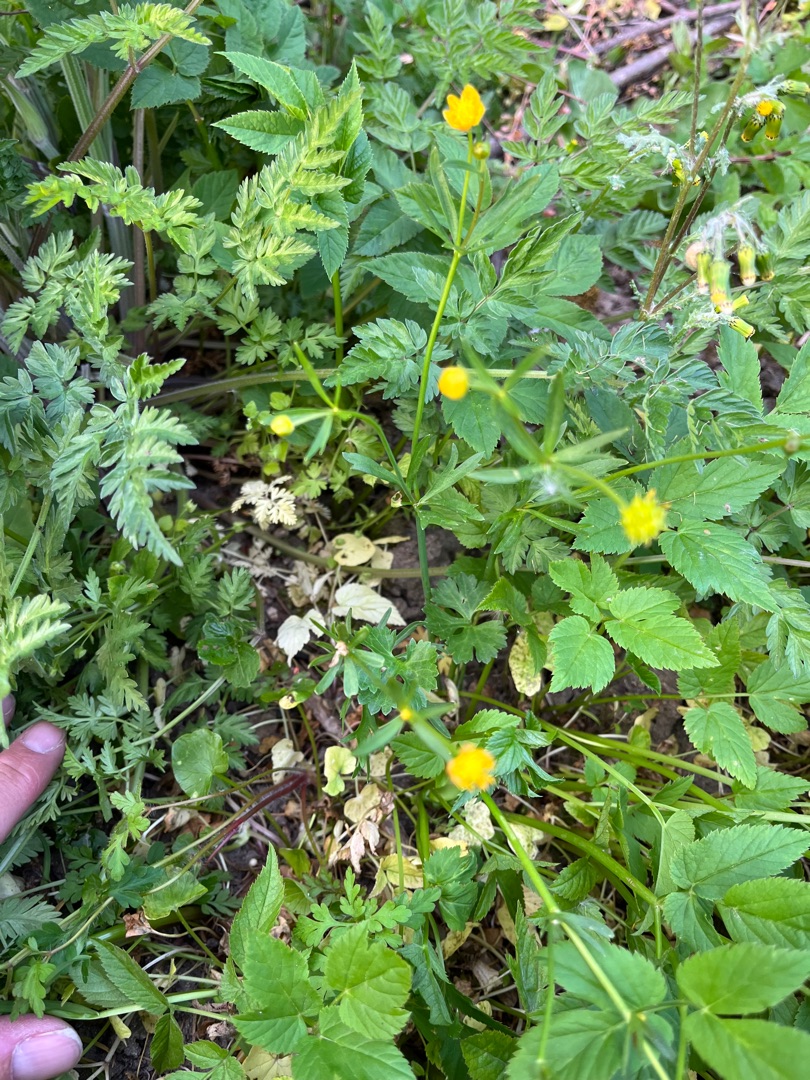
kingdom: Plantae
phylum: Tracheophyta
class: Magnoliopsida
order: Ranunculales
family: Ranunculaceae
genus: Ranunculus
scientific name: Ranunculus auricomus
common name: Nyrebladet ranunkel
